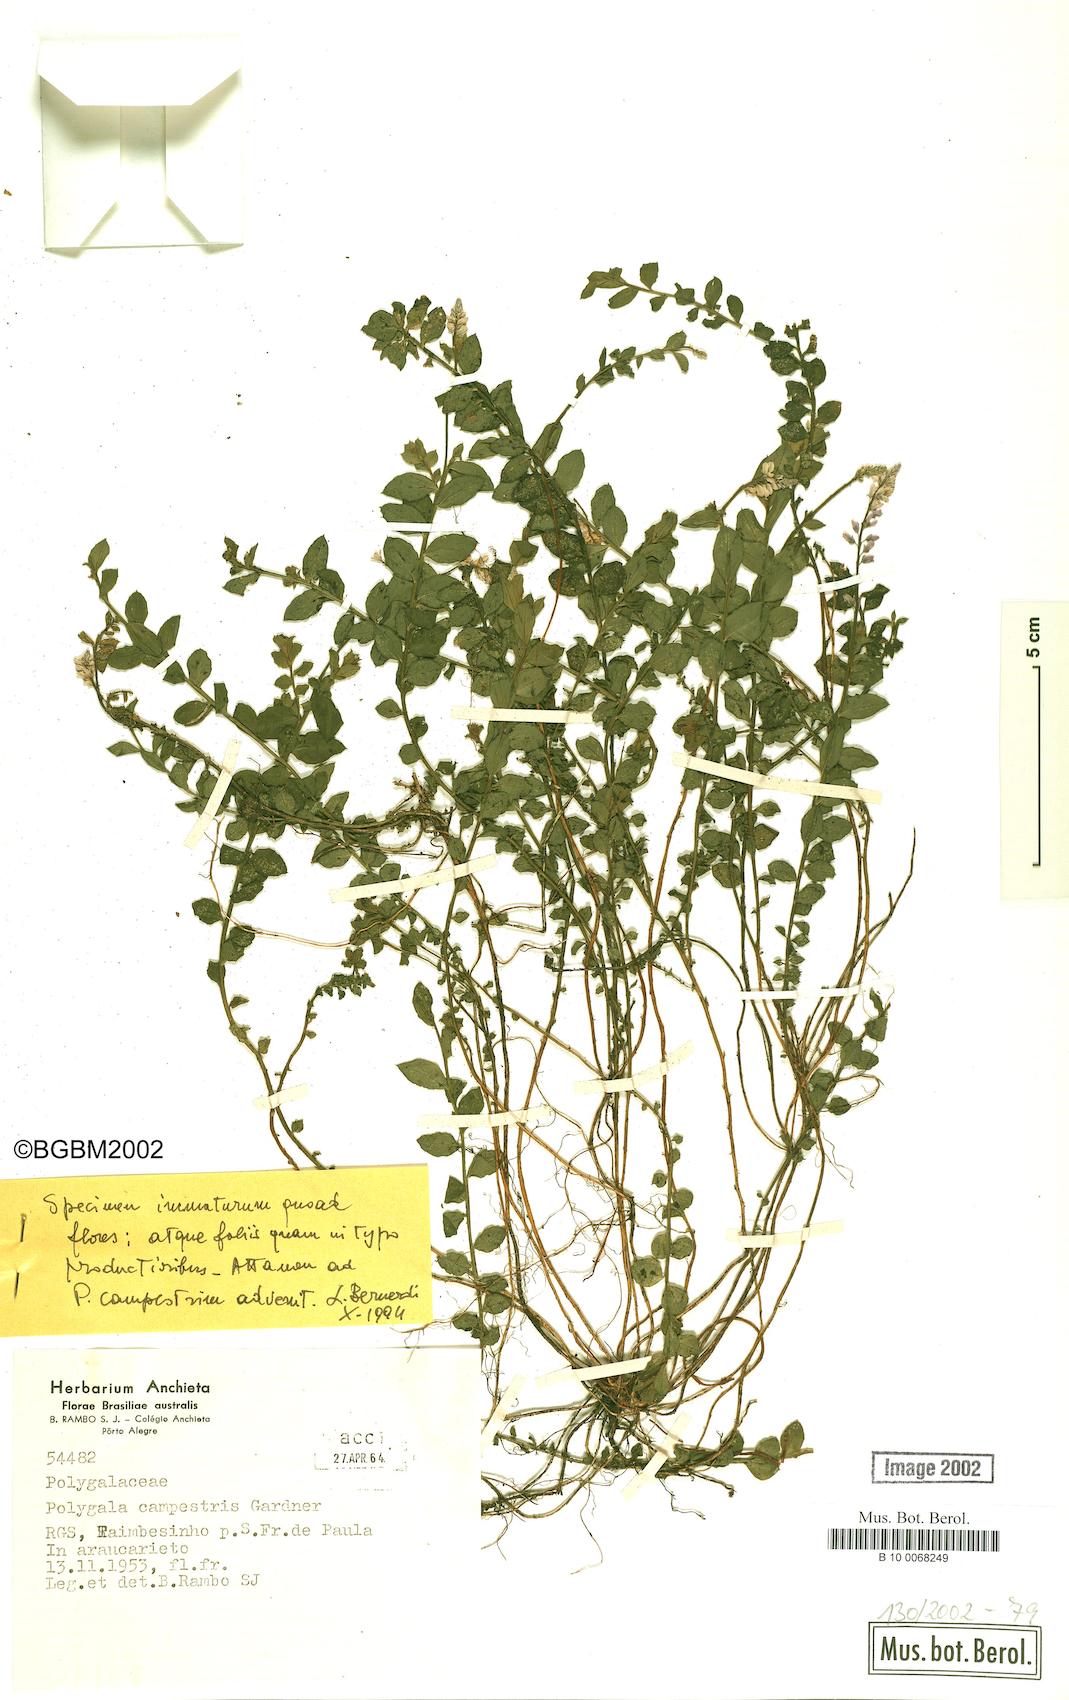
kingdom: Plantae
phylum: Tracheophyta
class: Magnoliopsida
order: Fabales
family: Polygalaceae
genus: Polygala
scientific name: Polygala campestris
